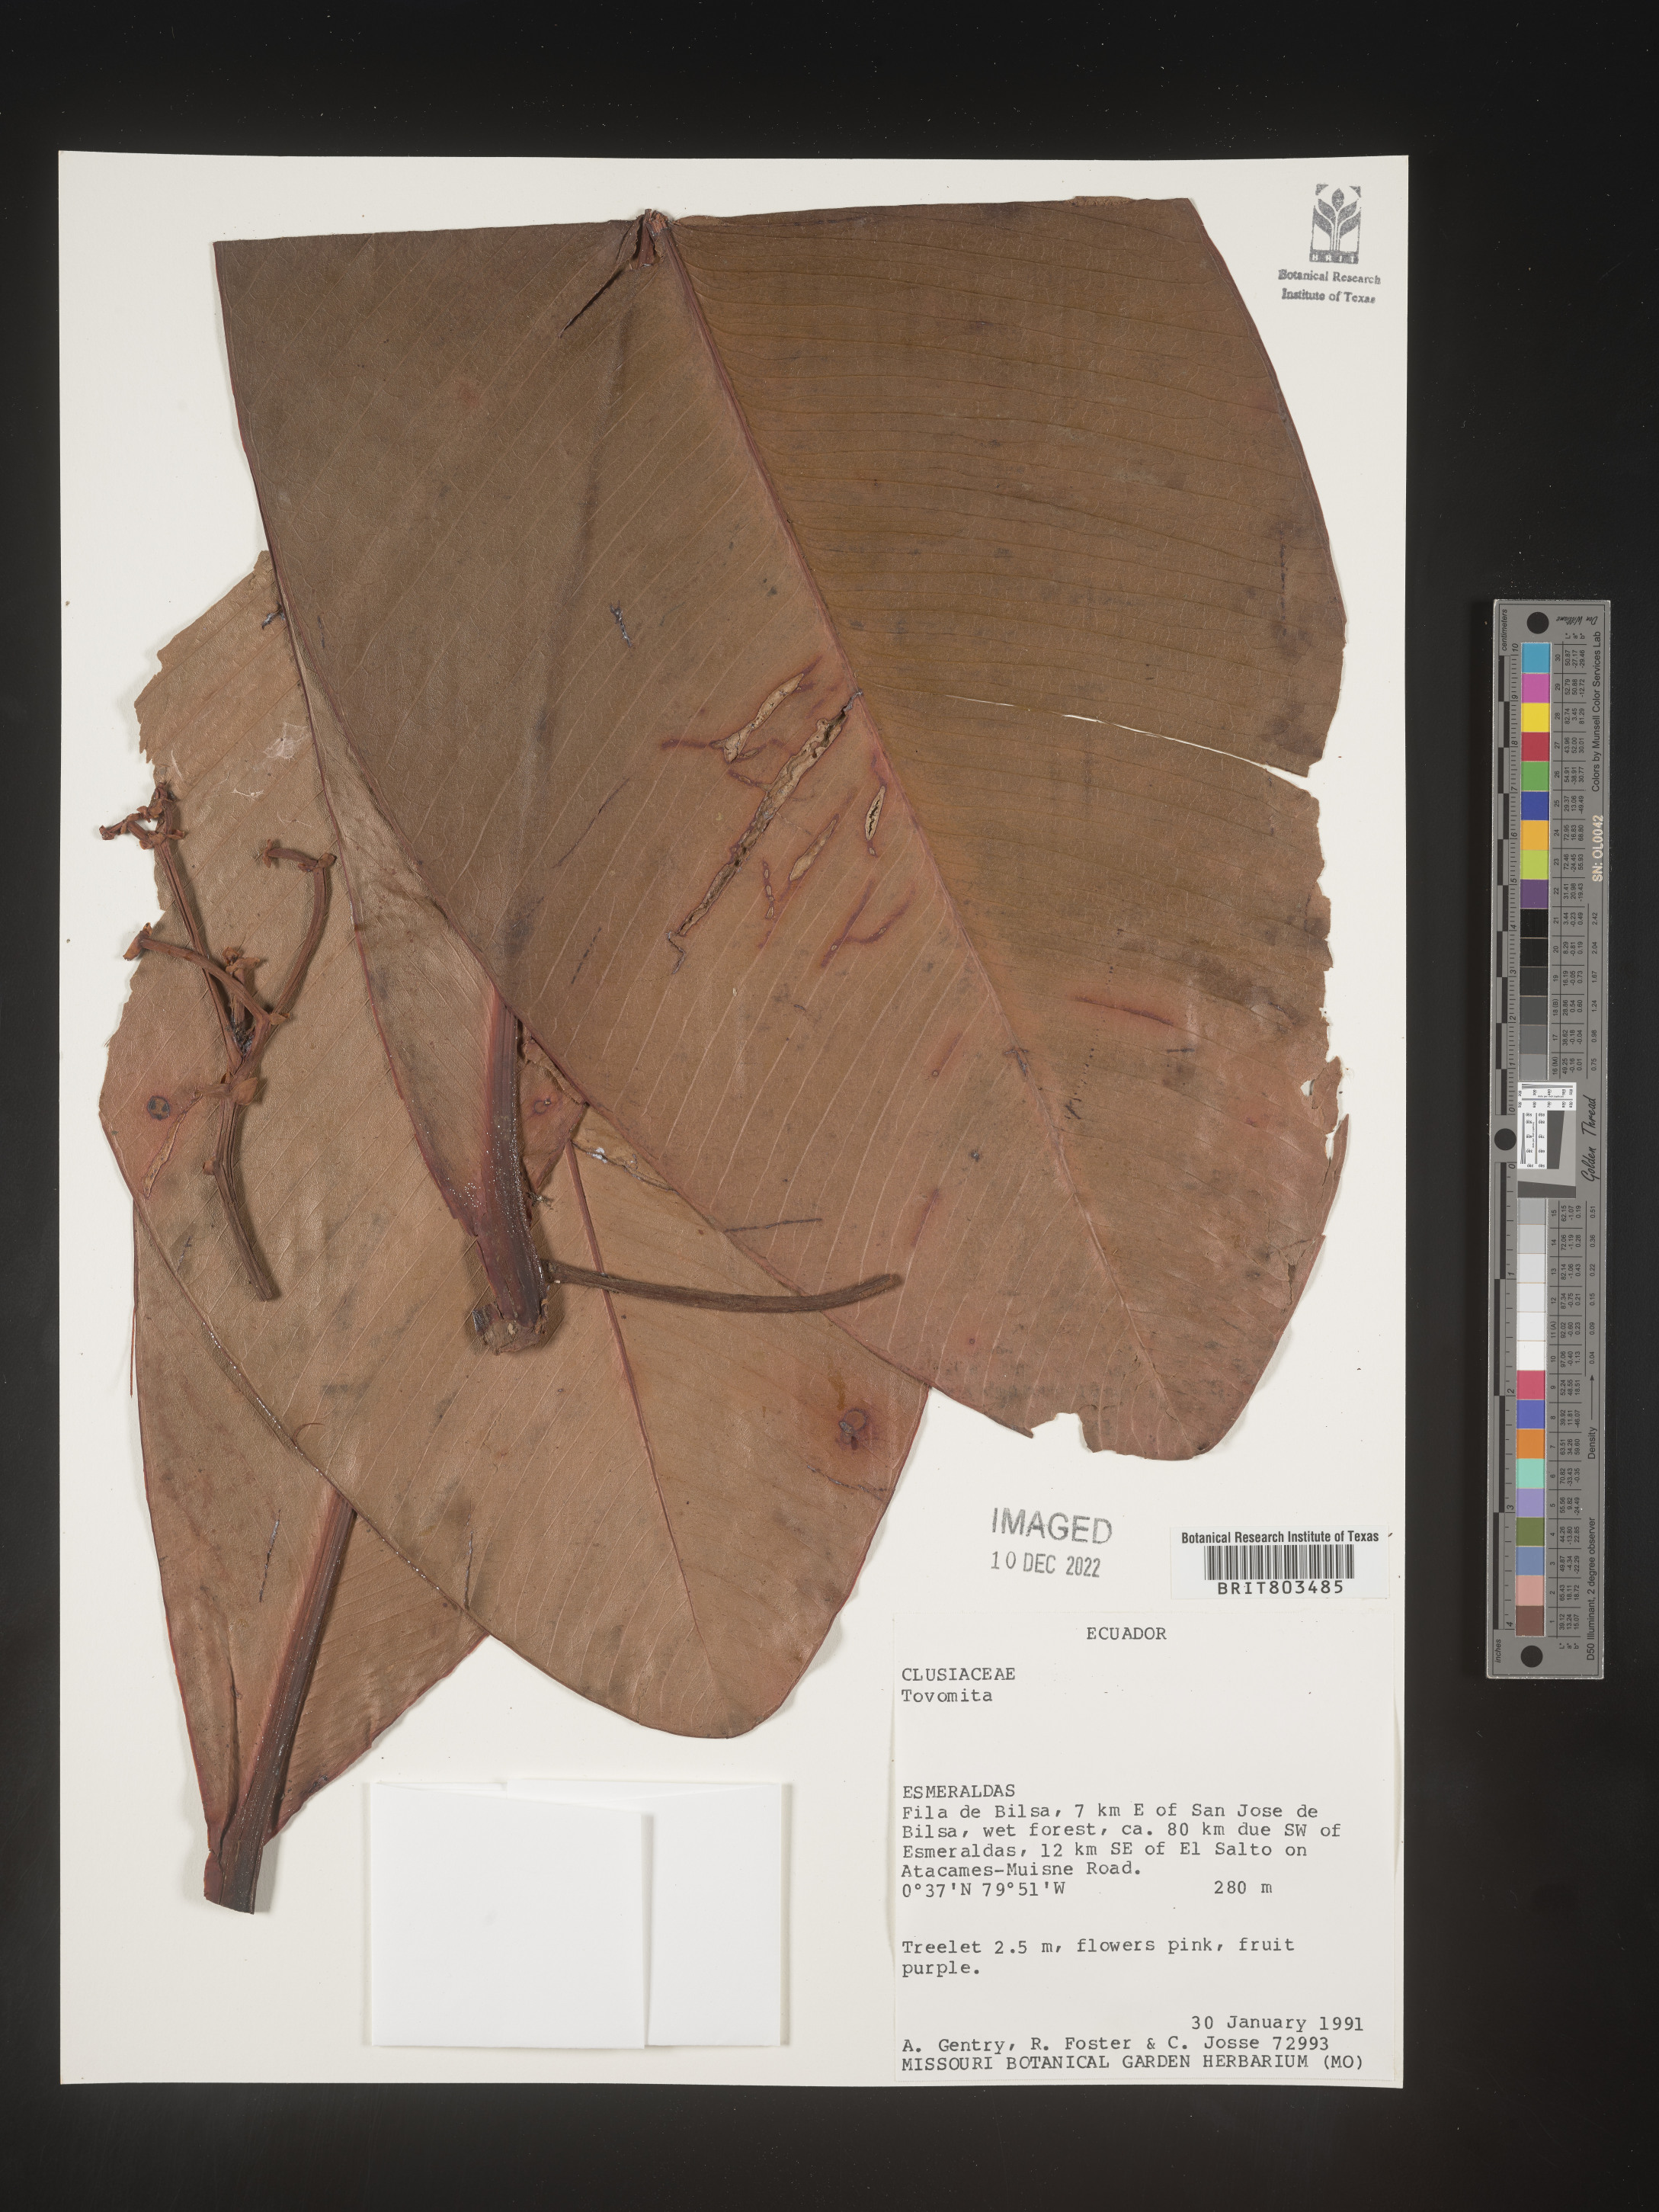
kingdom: Plantae
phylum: Tracheophyta
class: Magnoliopsida
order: Malpighiales
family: Clusiaceae
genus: Tovomita
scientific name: Tovomita
